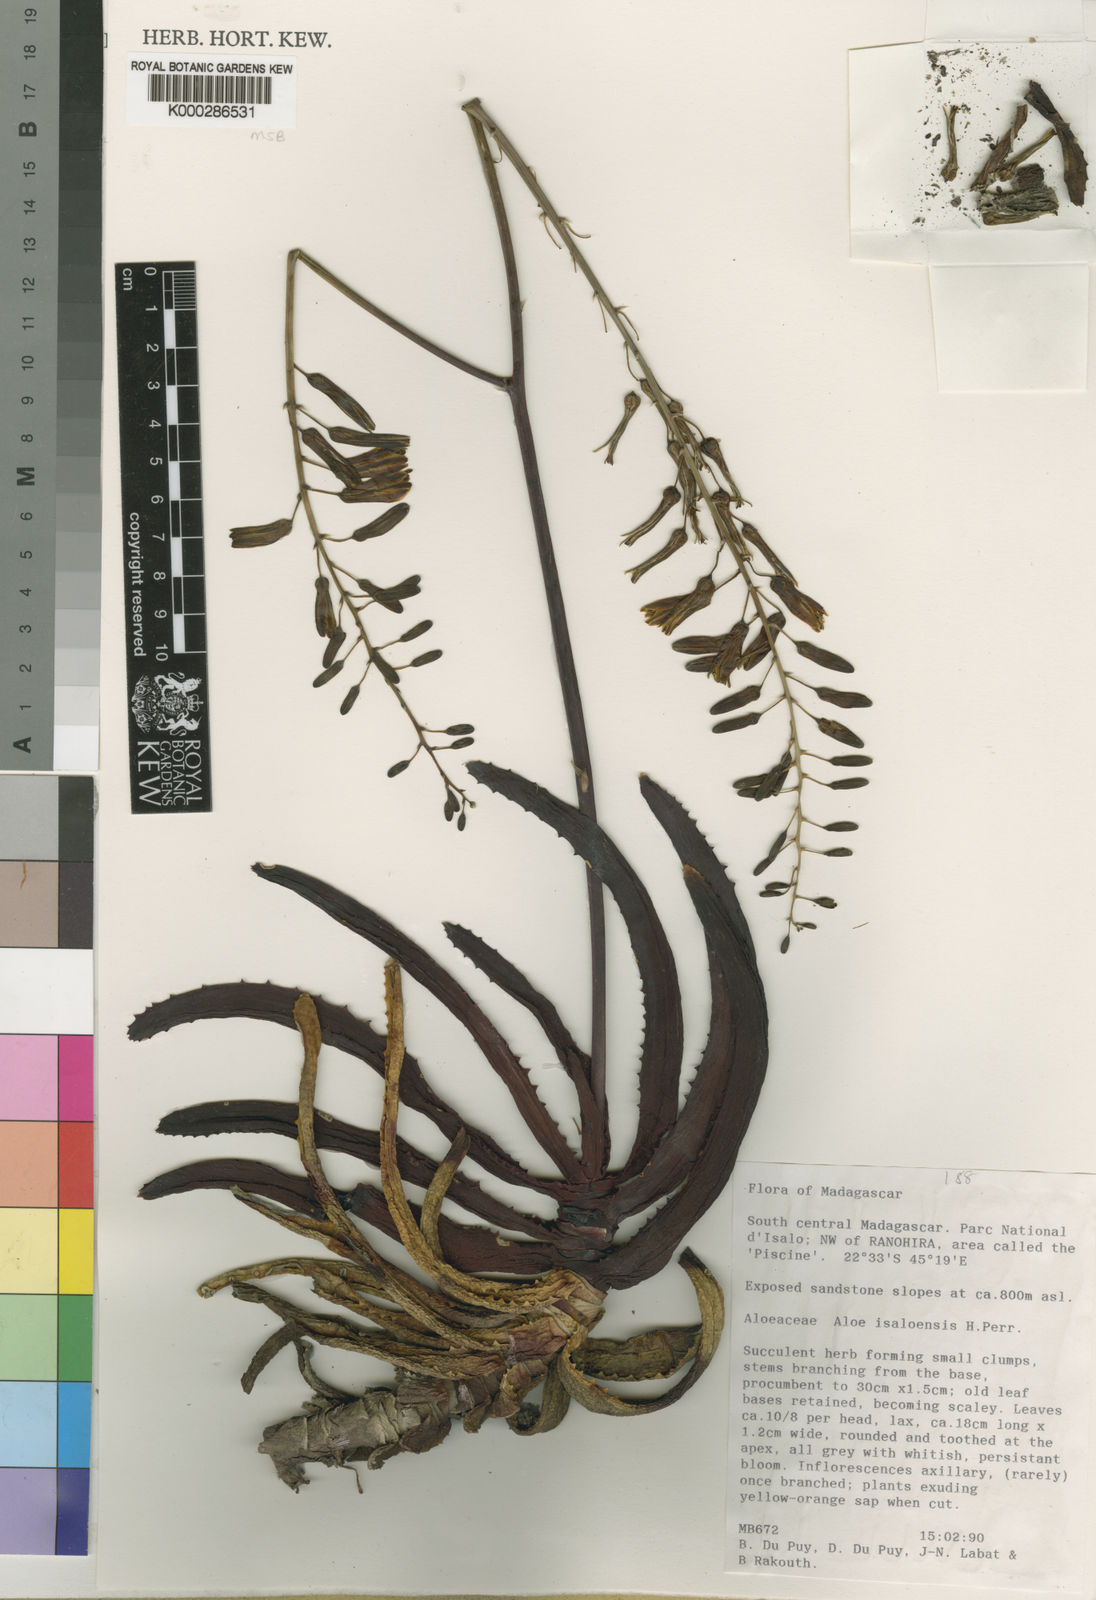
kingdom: Plantae
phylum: Tracheophyta
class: Liliopsida
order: Asparagales
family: Asphodelaceae
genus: Aloe
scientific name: Aloe
